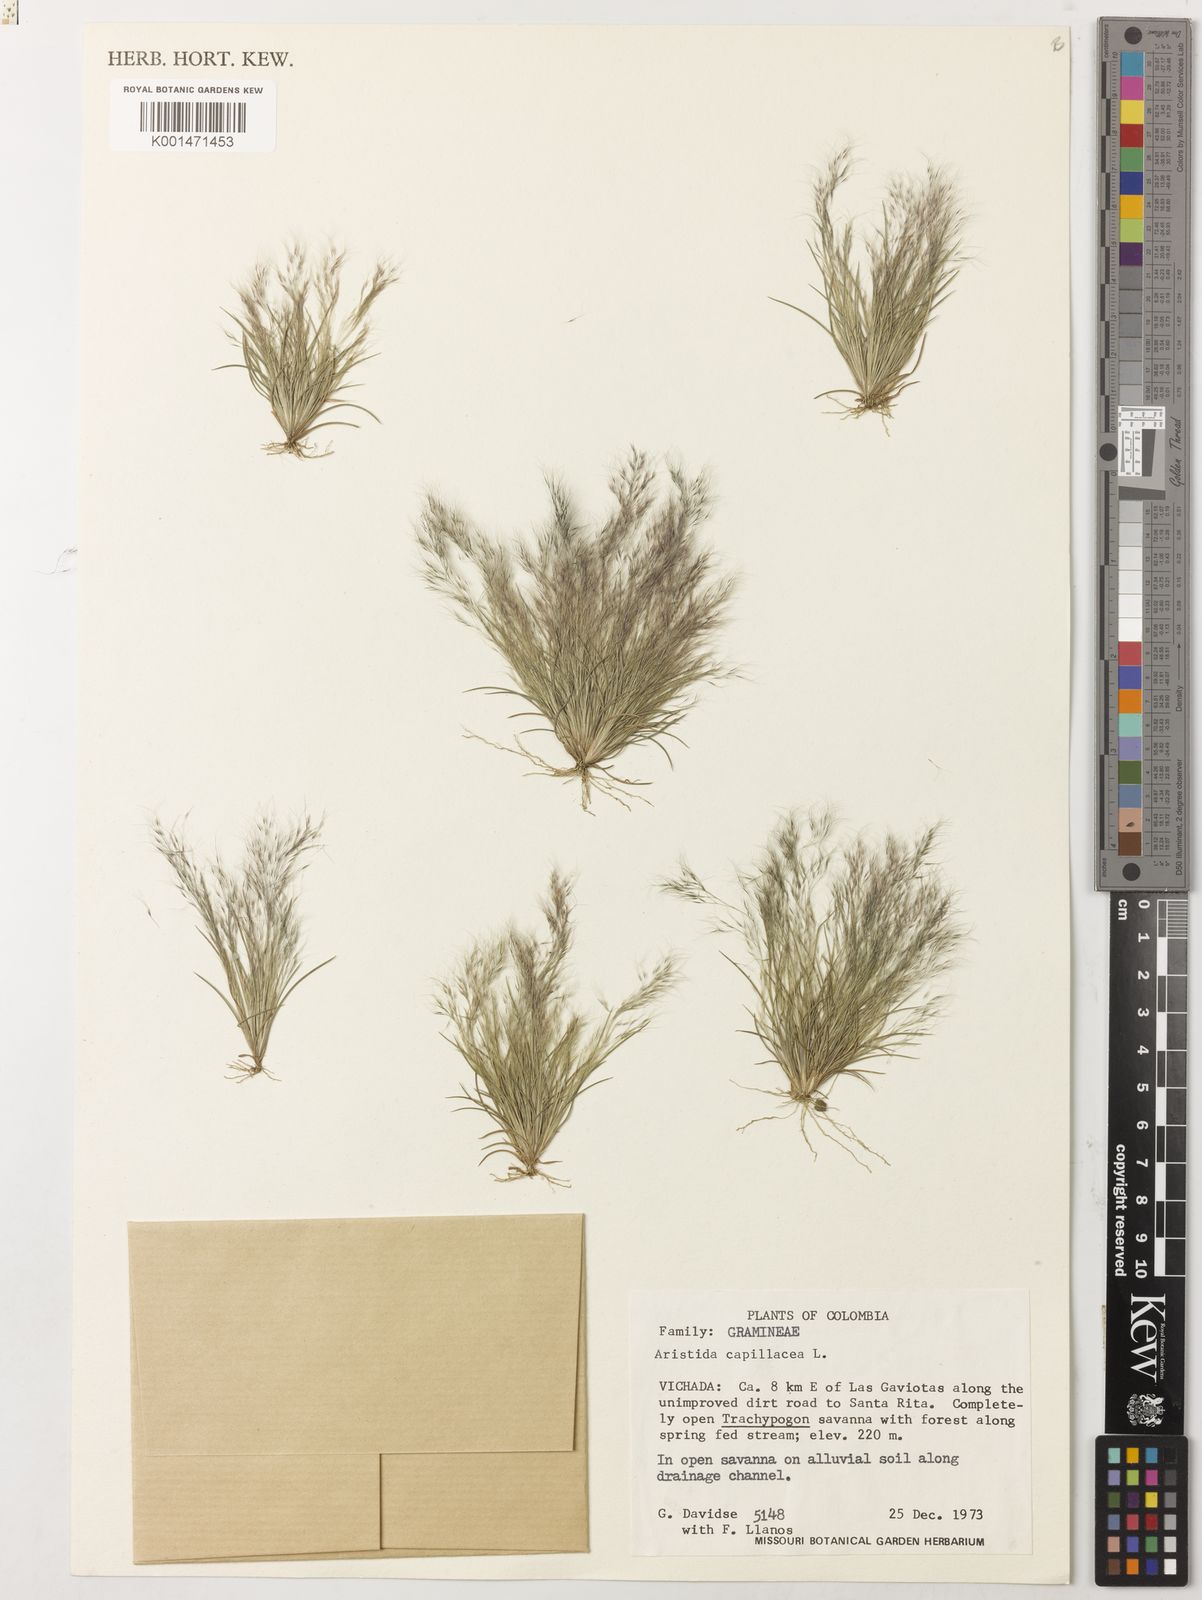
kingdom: Plantae
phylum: Tracheophyta
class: Liliopsida
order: Poales
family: Poaceae
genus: Aristida
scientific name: Aristida capillacea
